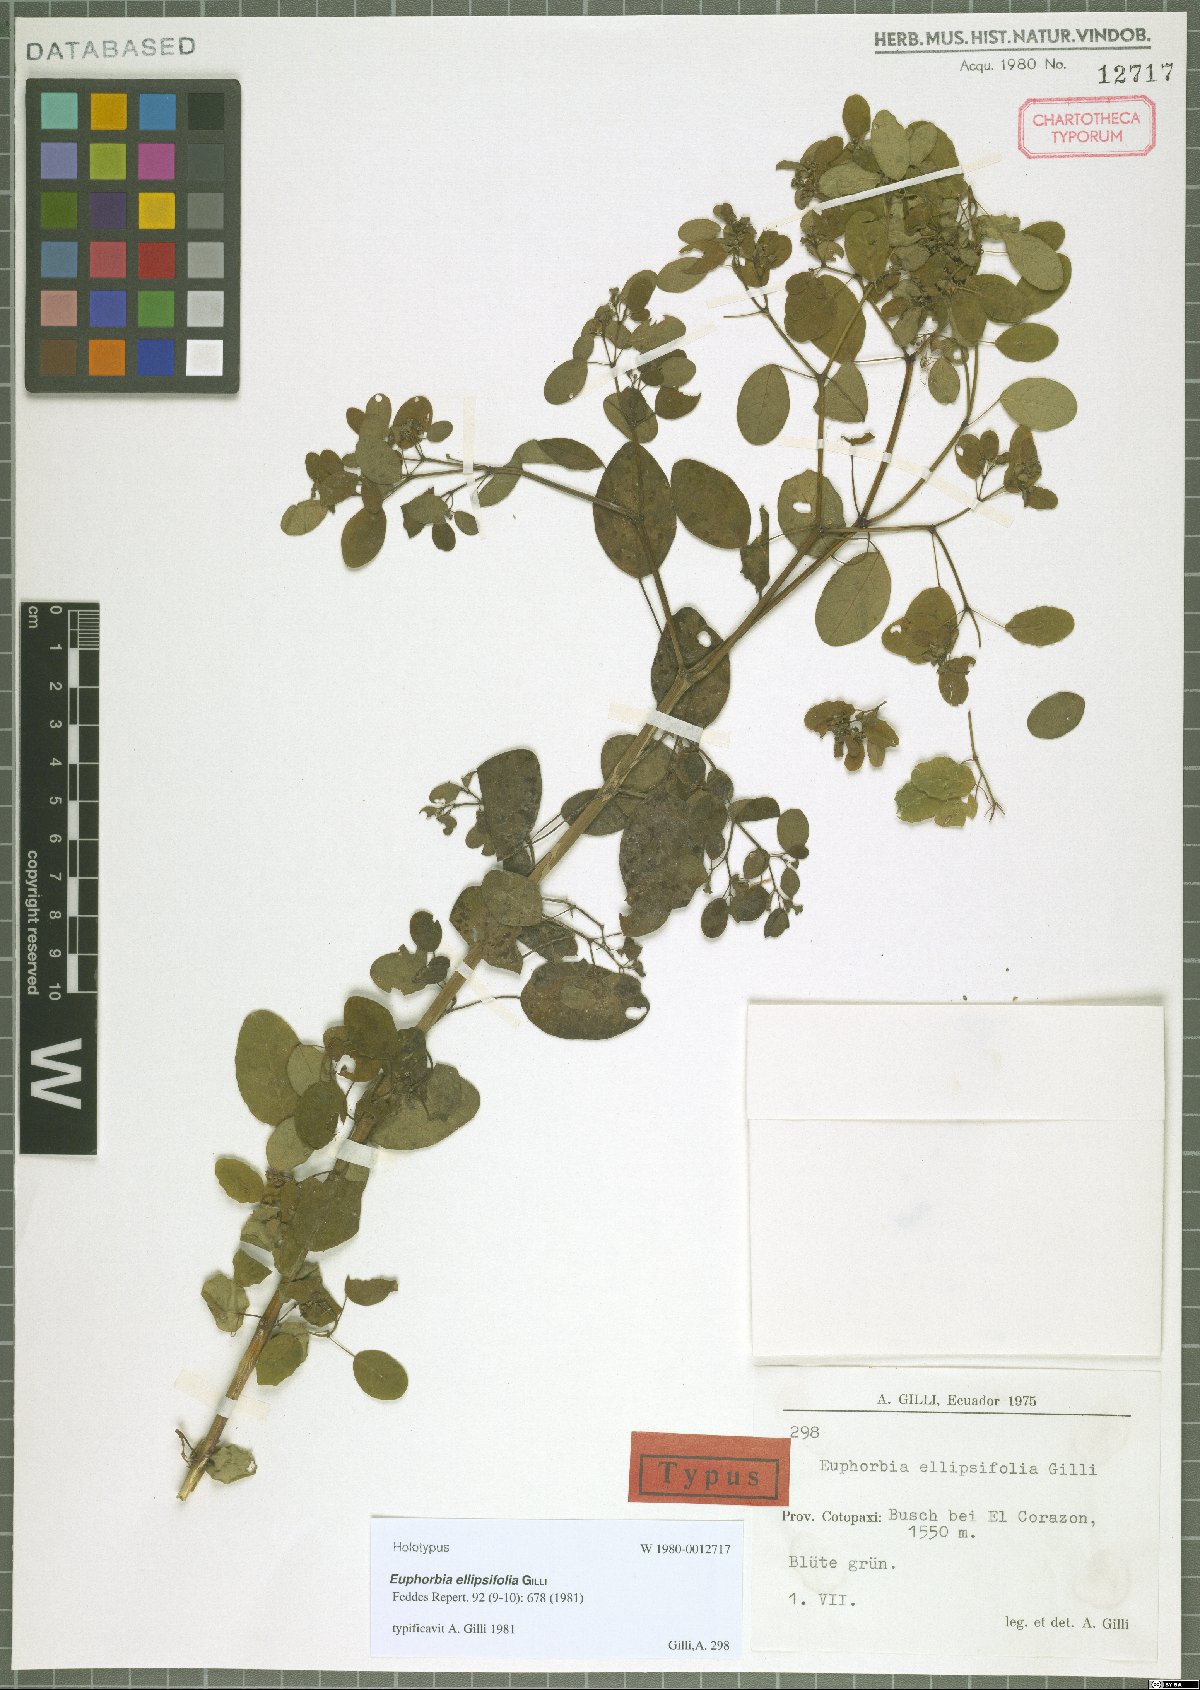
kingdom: Plantae
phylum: Tracheophyta
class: Magnoliopsida
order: Malpighiales
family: Euphorbiaceae
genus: Euphorbia
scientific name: Euphorbia ellipsifolia
